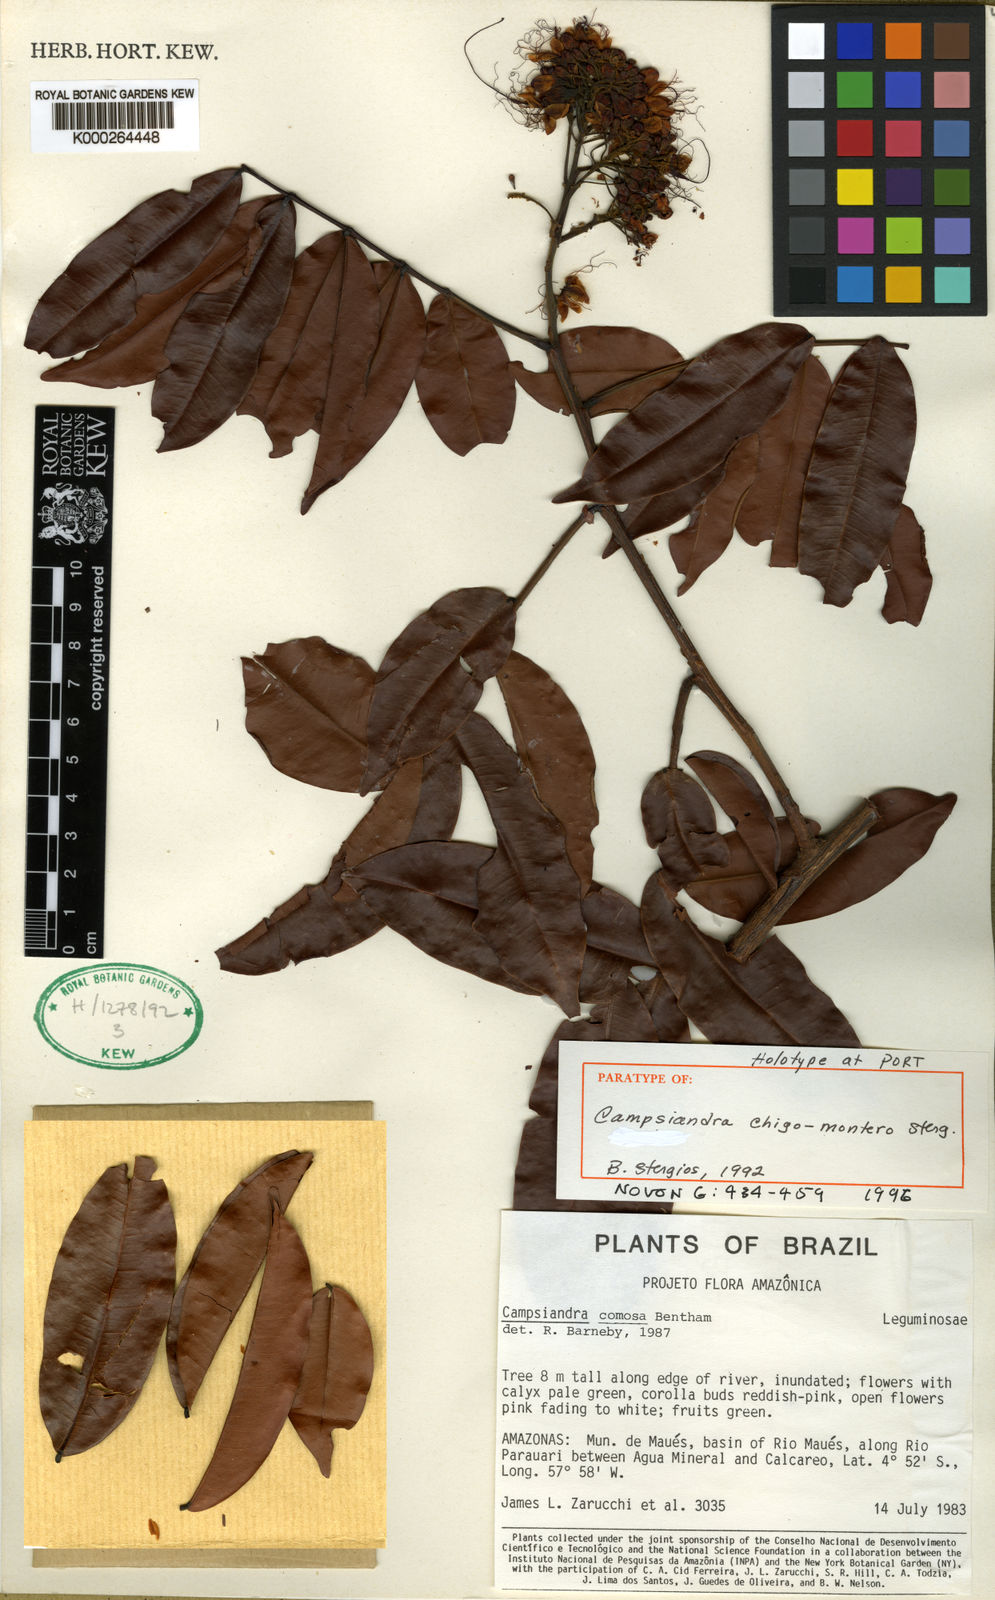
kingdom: Plantae
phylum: Tracheophyta
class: Magnoliopsida
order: Fabales
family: Fabaceae
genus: Campsiandra
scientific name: Campsiandra chigo-montero
